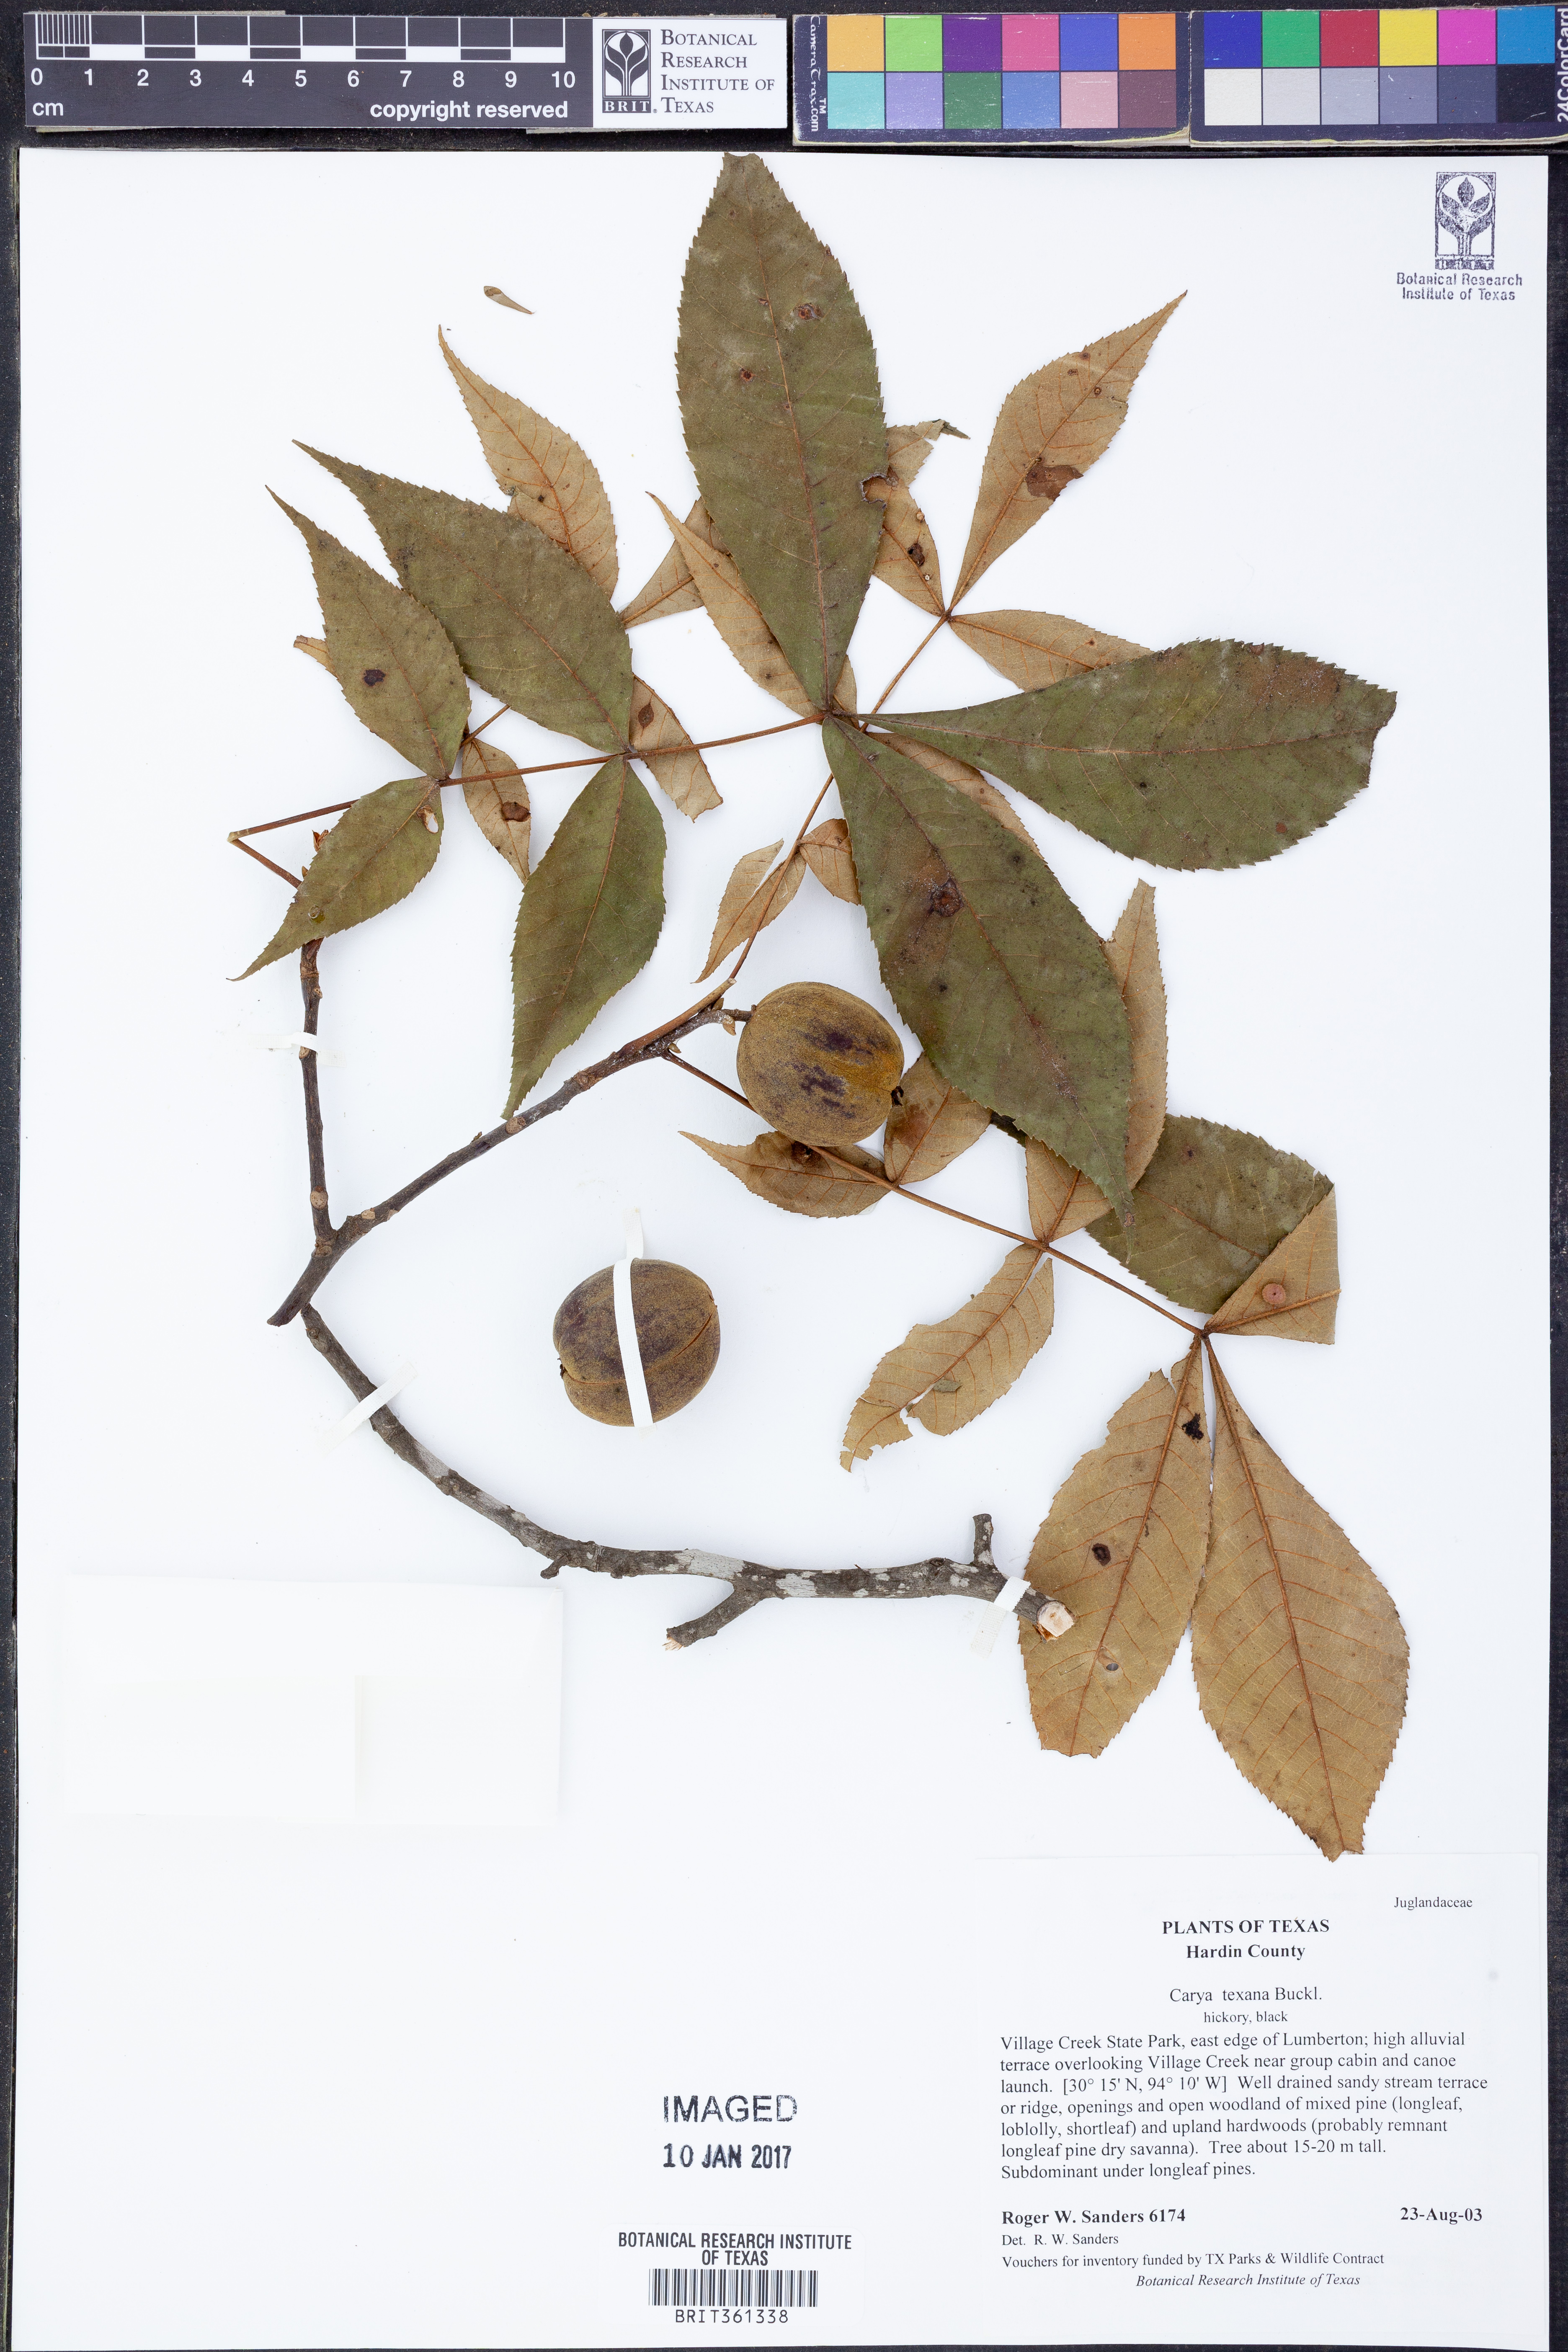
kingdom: Plantae
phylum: Tracheophyta
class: Magnoliopsida
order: Fagales
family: Juglandaceae
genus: Carya
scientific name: Carya texana
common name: Black hickory
